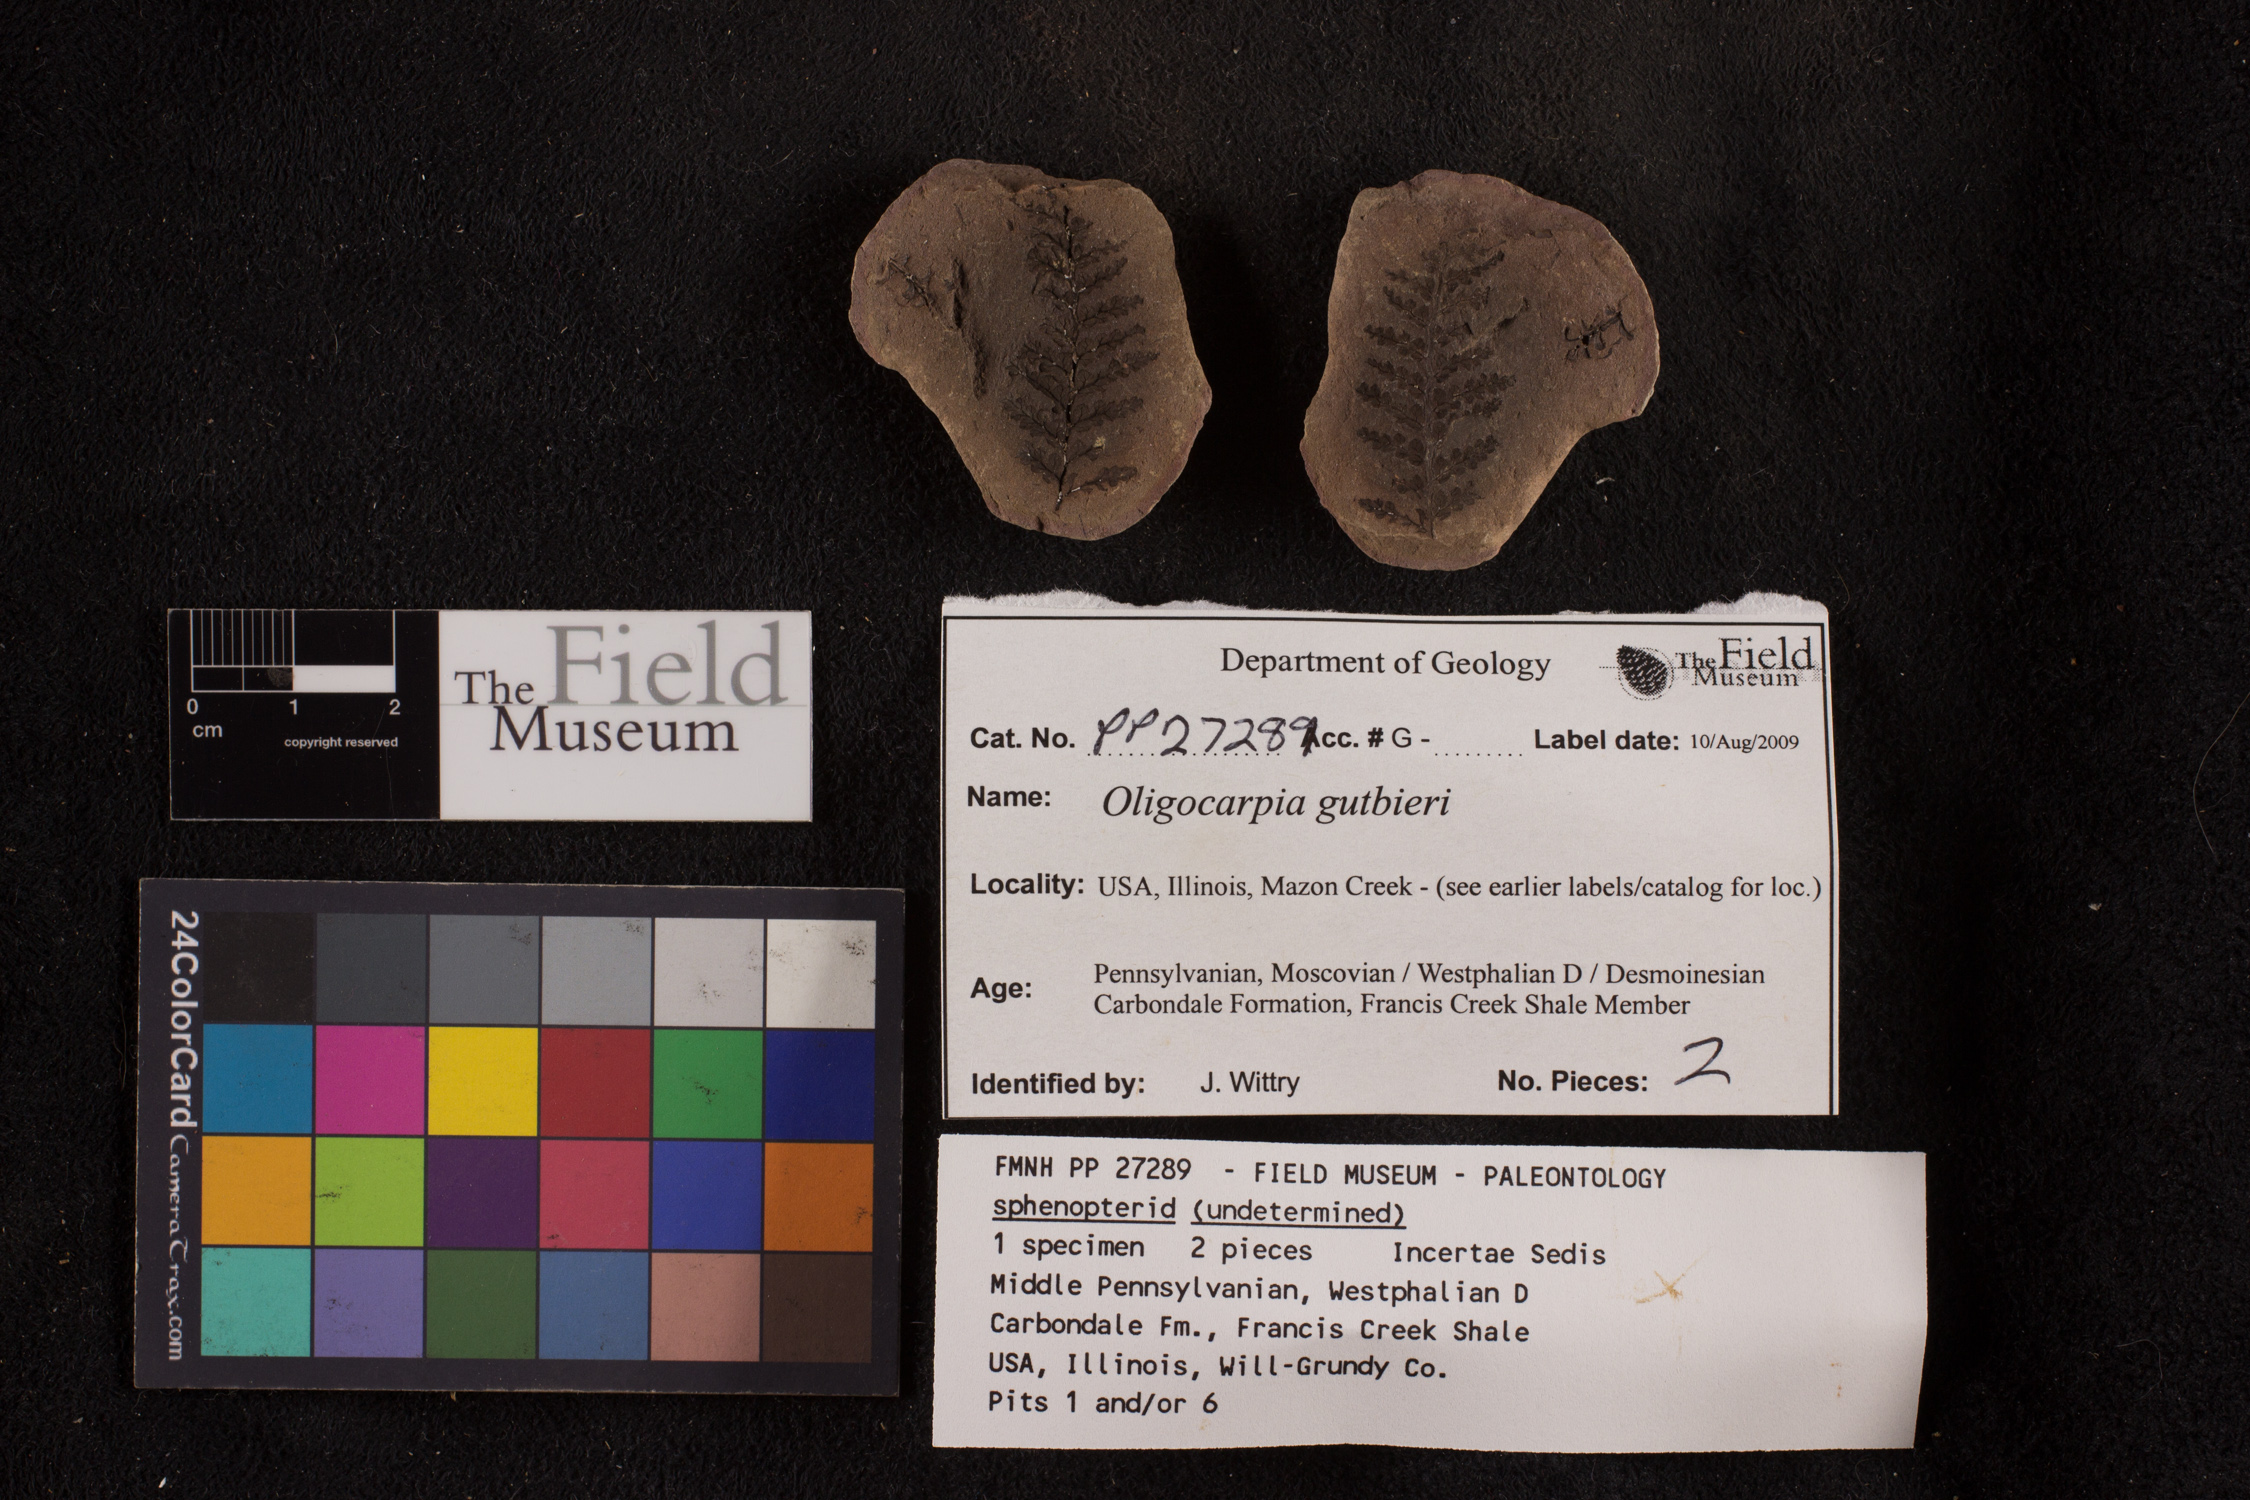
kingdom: Plantae
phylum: Tracheophyta
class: Polypodiopsida
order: Gleicheniales
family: Gleicheniaceae
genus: Oligocarpia
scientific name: Oligocarpia gutbieri
